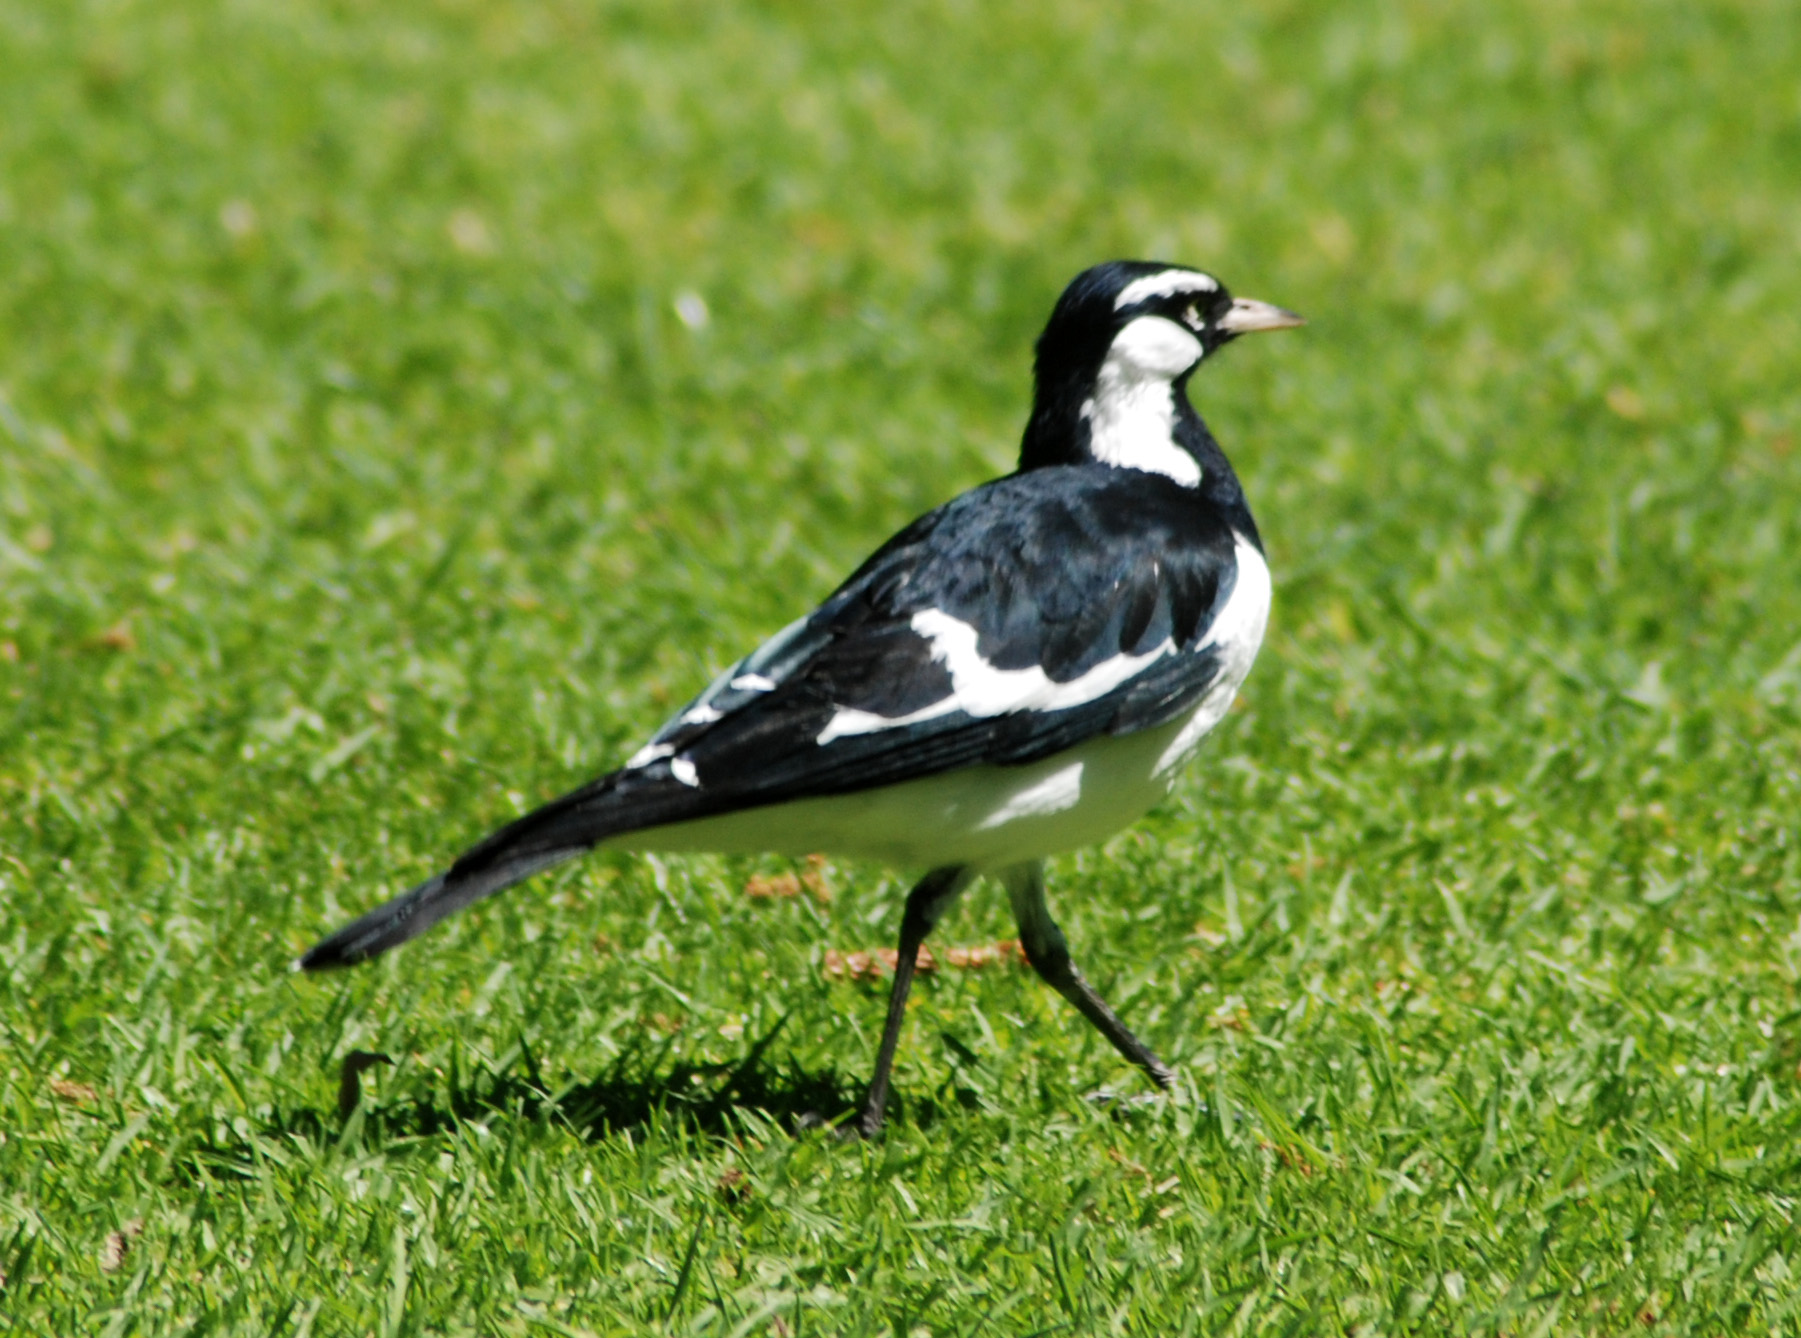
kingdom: Animalia
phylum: Chordata
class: Aves
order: Passeriformes
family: Monarchidae
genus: Grallina
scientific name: Grallina cyanoleuca
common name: Magpie-lark
